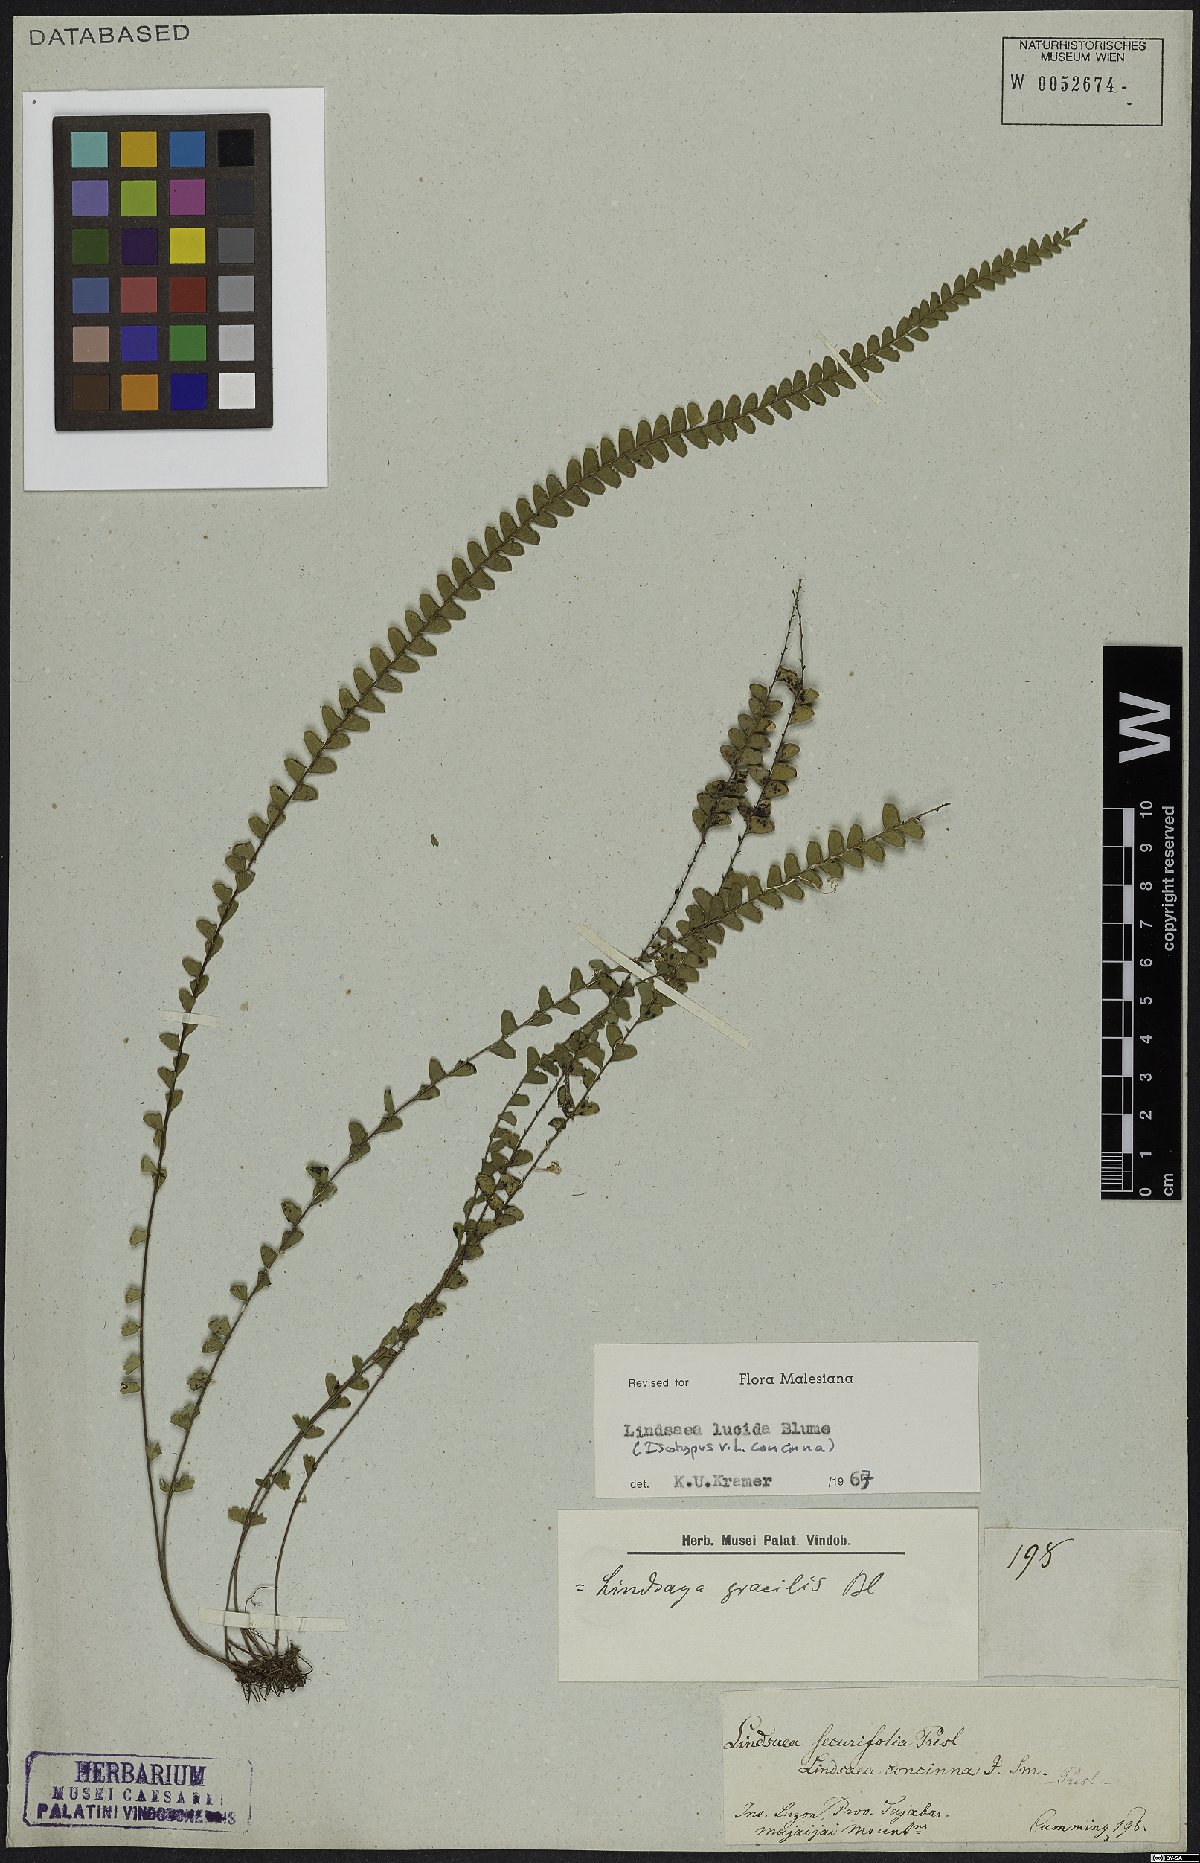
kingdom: Plantae
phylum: Tracheophyta
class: Polypodiopsida
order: Polypodiales
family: Lindsaeaceae
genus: Lindsaea
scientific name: Lindsaea lucida
